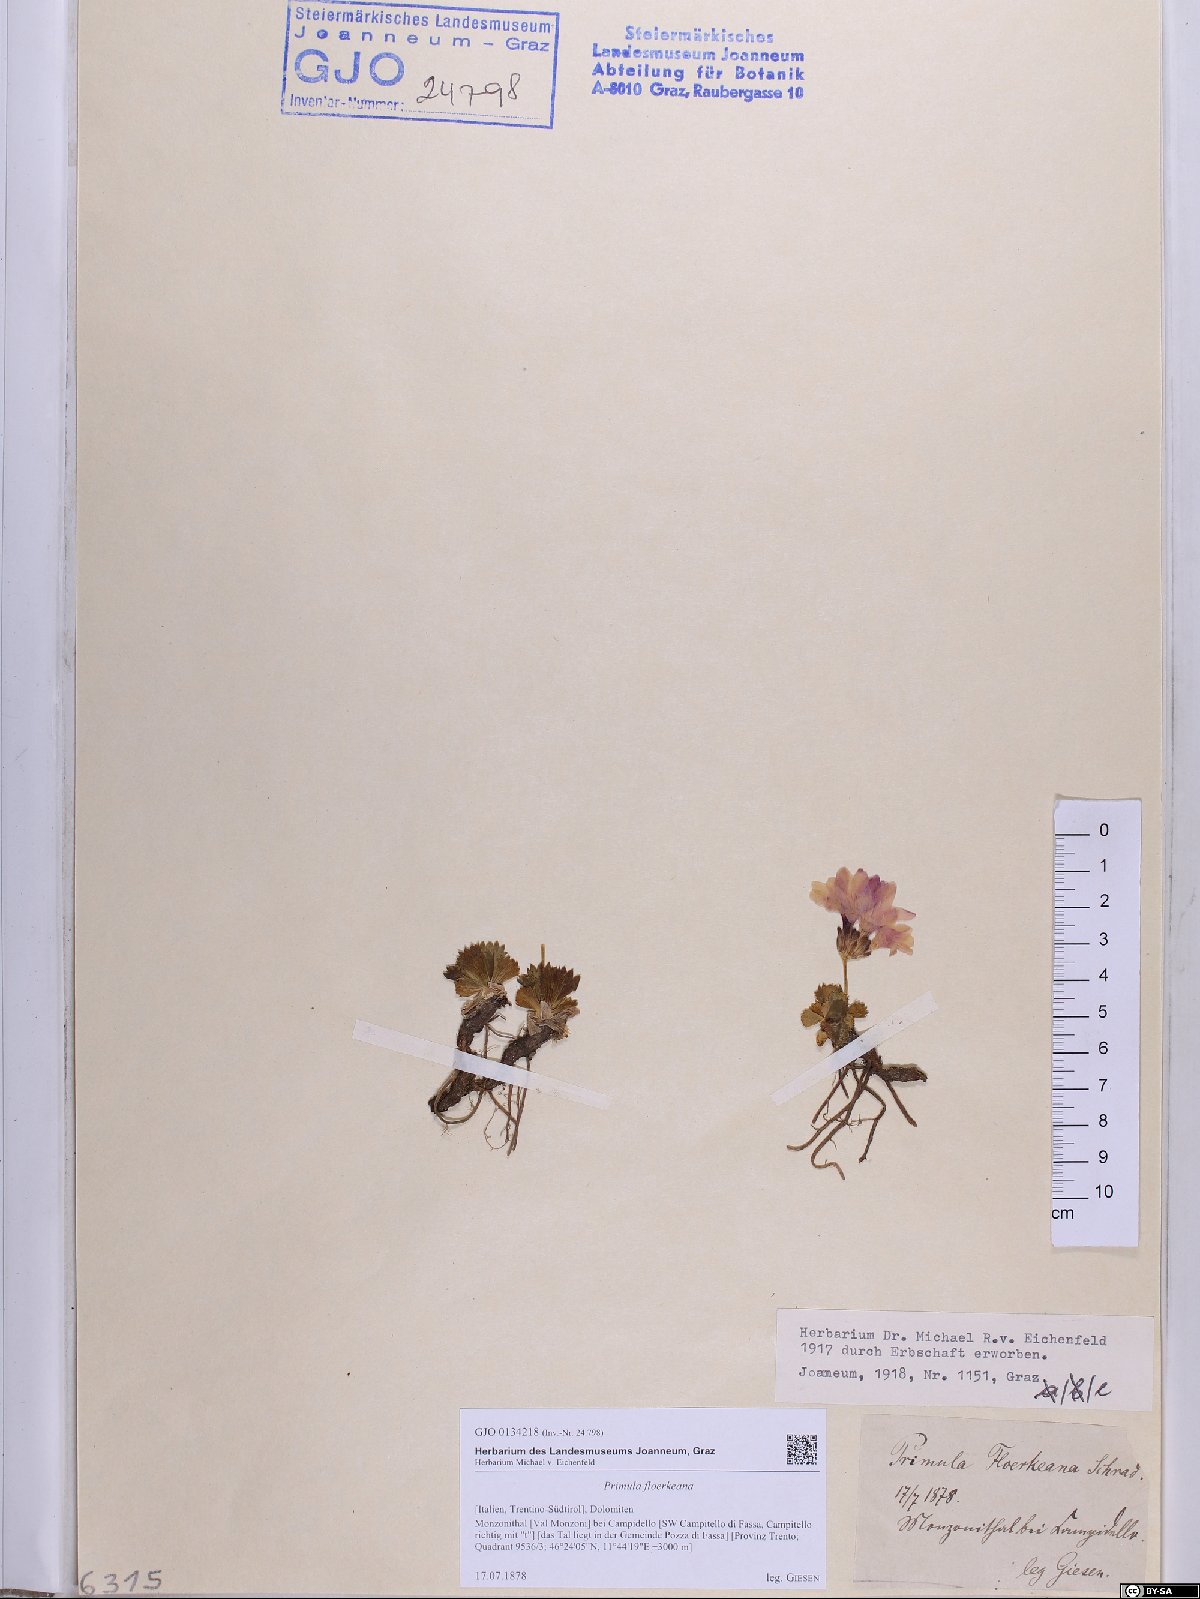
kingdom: Plantae
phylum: Tracheophyta
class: Magnoliopsida
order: Ericales
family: Primulaceae
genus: Primula
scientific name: Primula floerkeana
